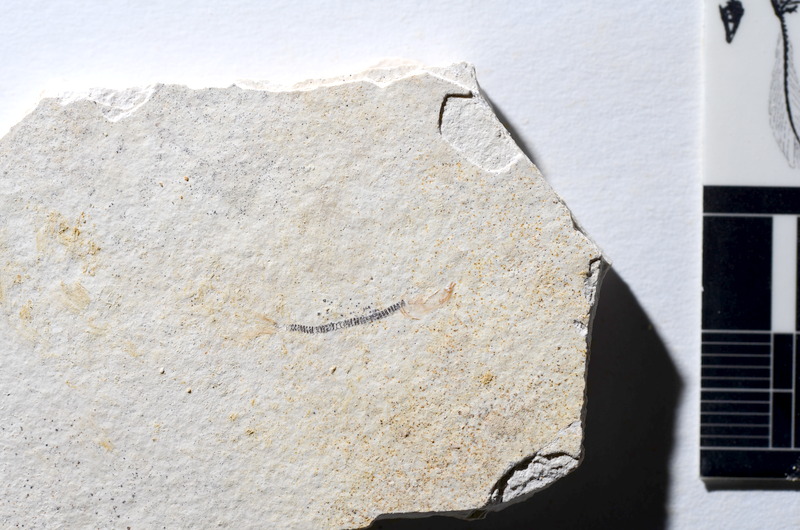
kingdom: Animalia
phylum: Chordata
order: Salmoniformes
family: Orthogonikleithridae
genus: Orthogonikleithrus
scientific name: Orthogonikleithrus hoelli
